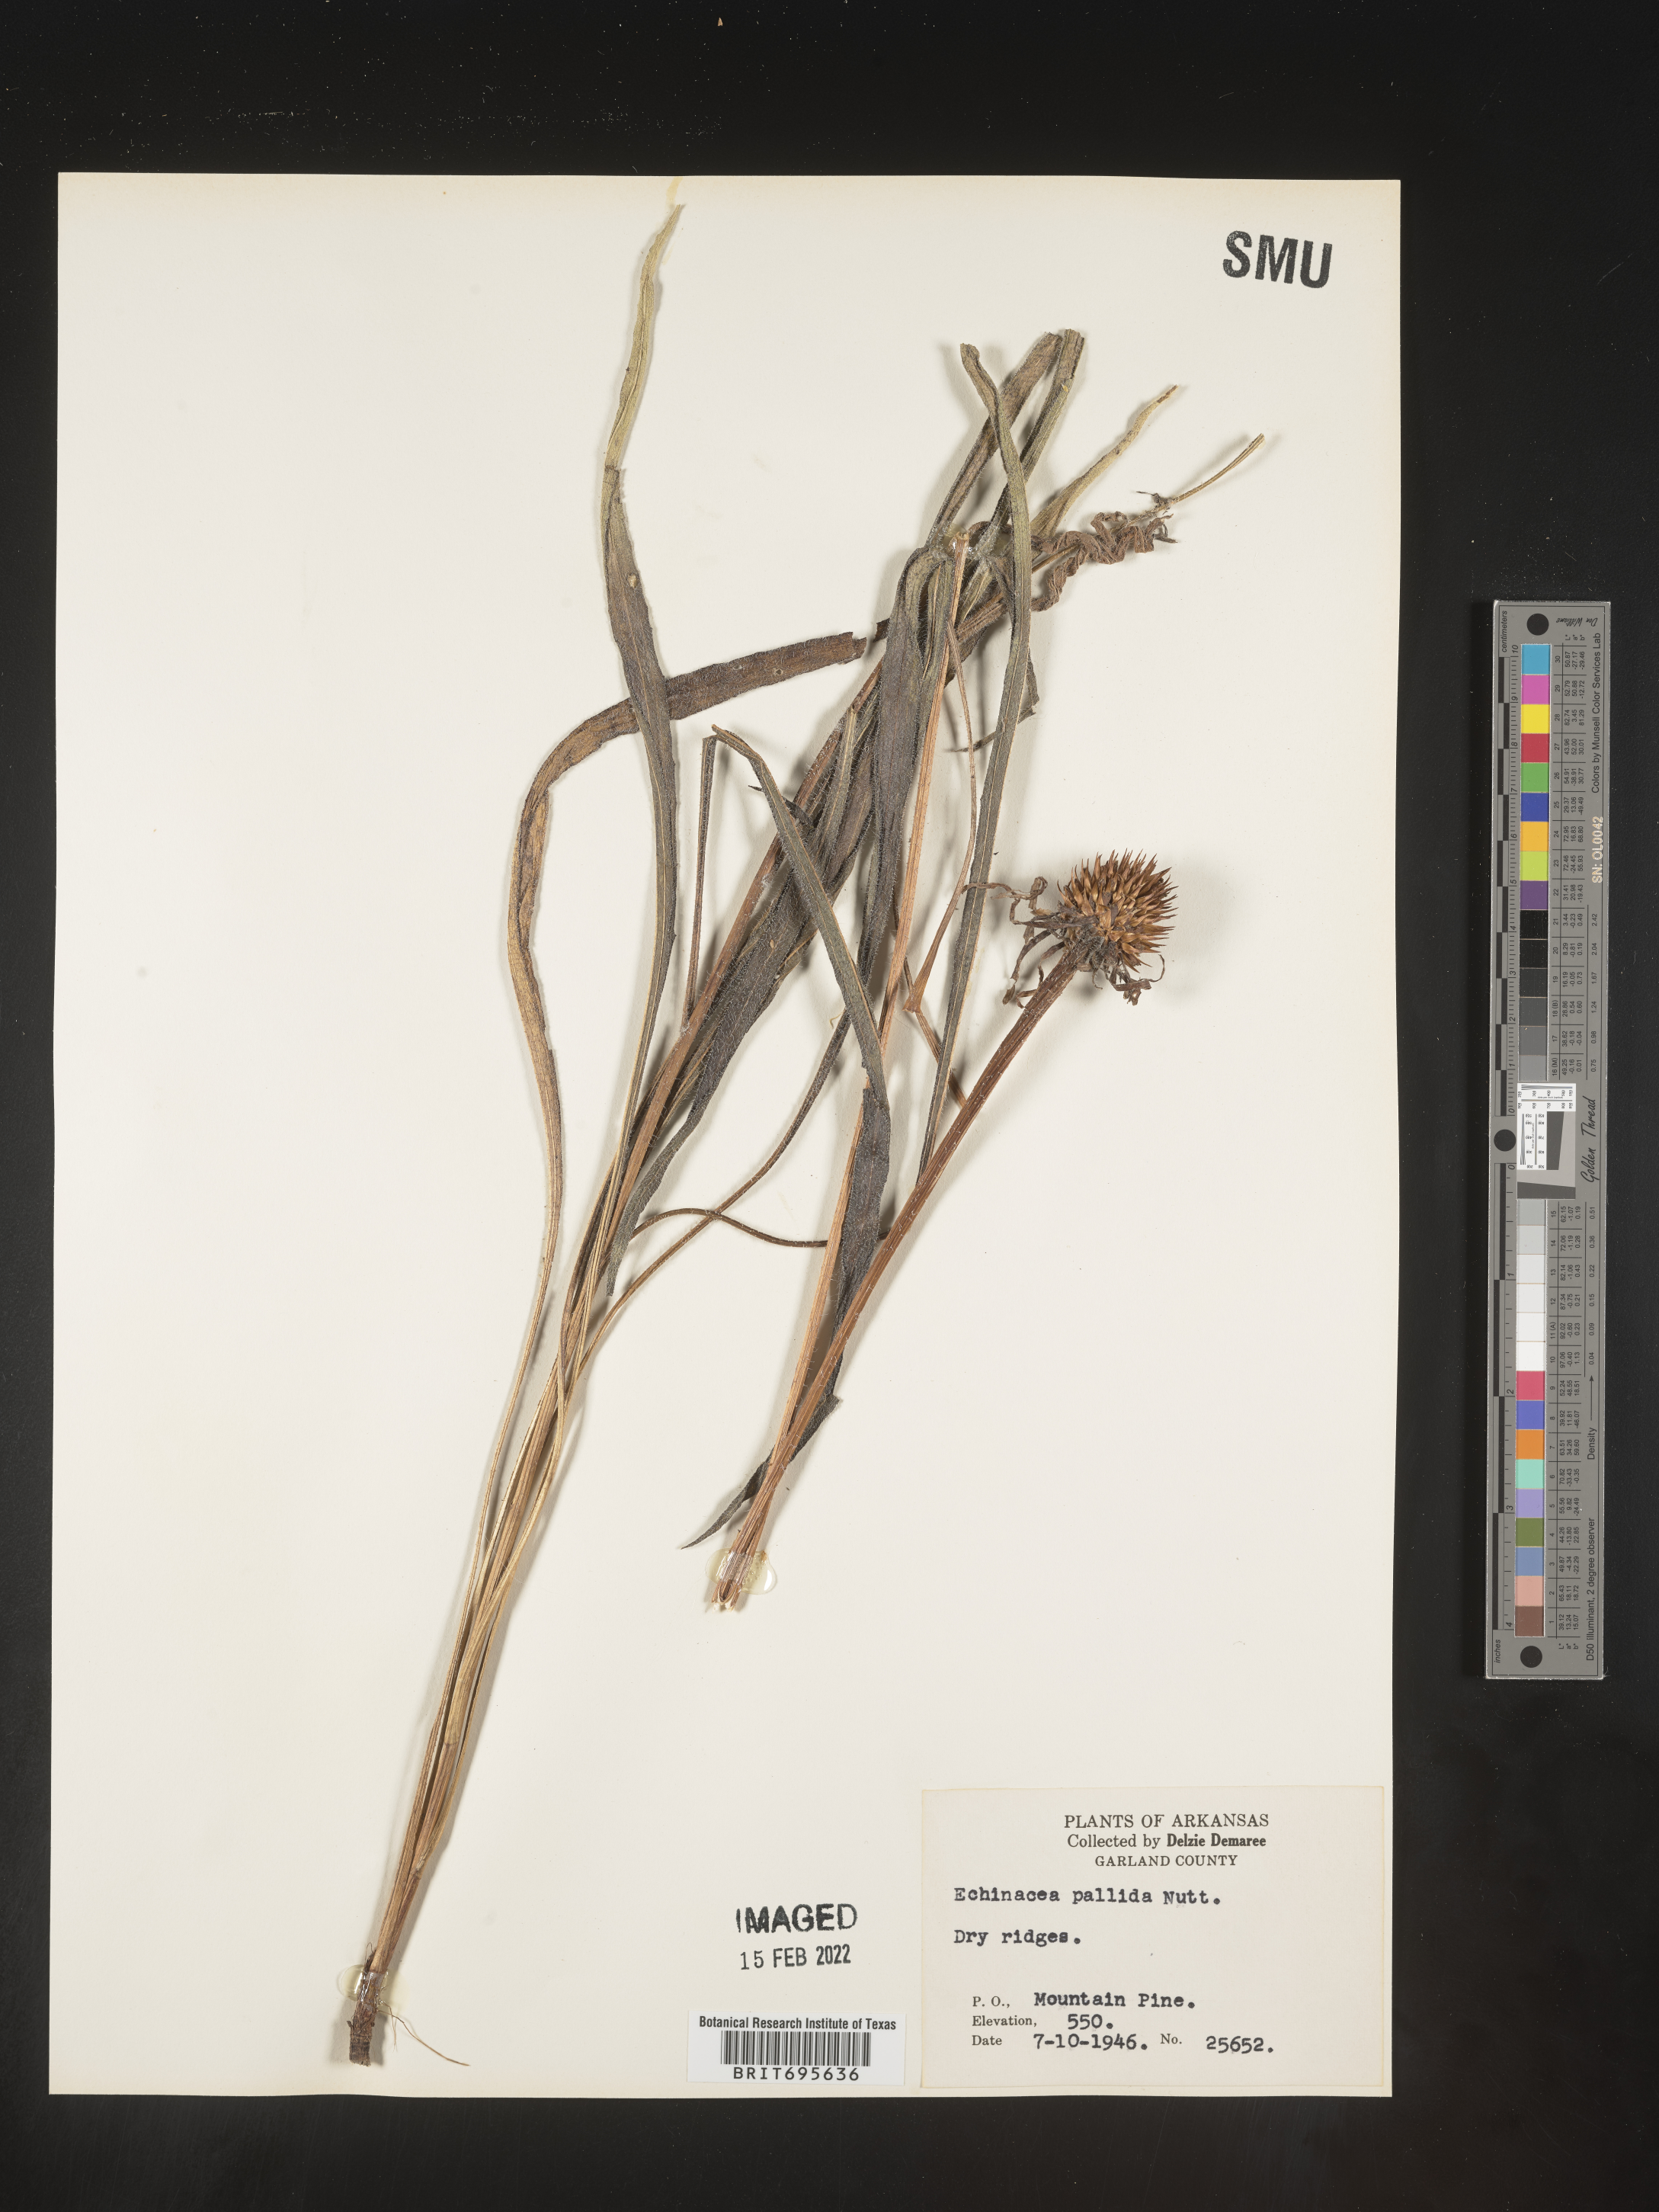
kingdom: Plantae
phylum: Tracheophyta
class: Magnoliopsida
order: Asterales
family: Asteraceae
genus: Echinacea
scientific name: Echinacea pallida
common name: Pale echinacea
